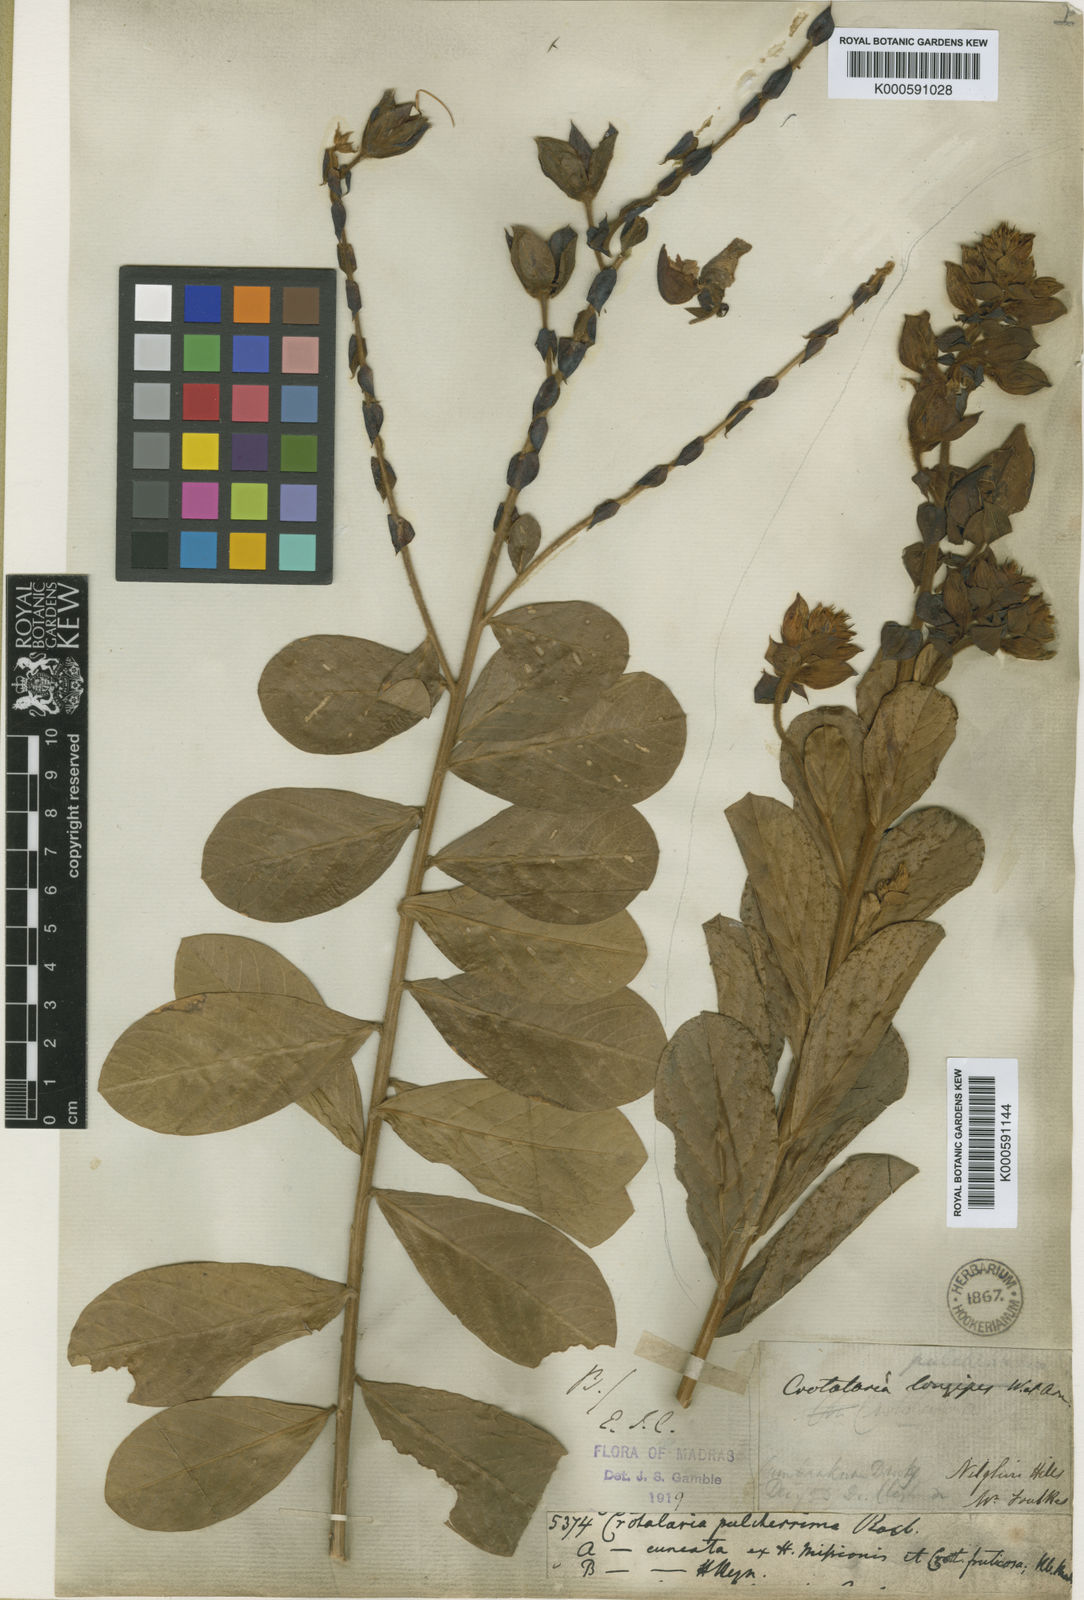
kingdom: Plantae
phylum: Tracheophyta
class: Magnoliopsida
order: Fabales
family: Fabaceae
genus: Crotalaria
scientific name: Crotalaria pulcherrima
